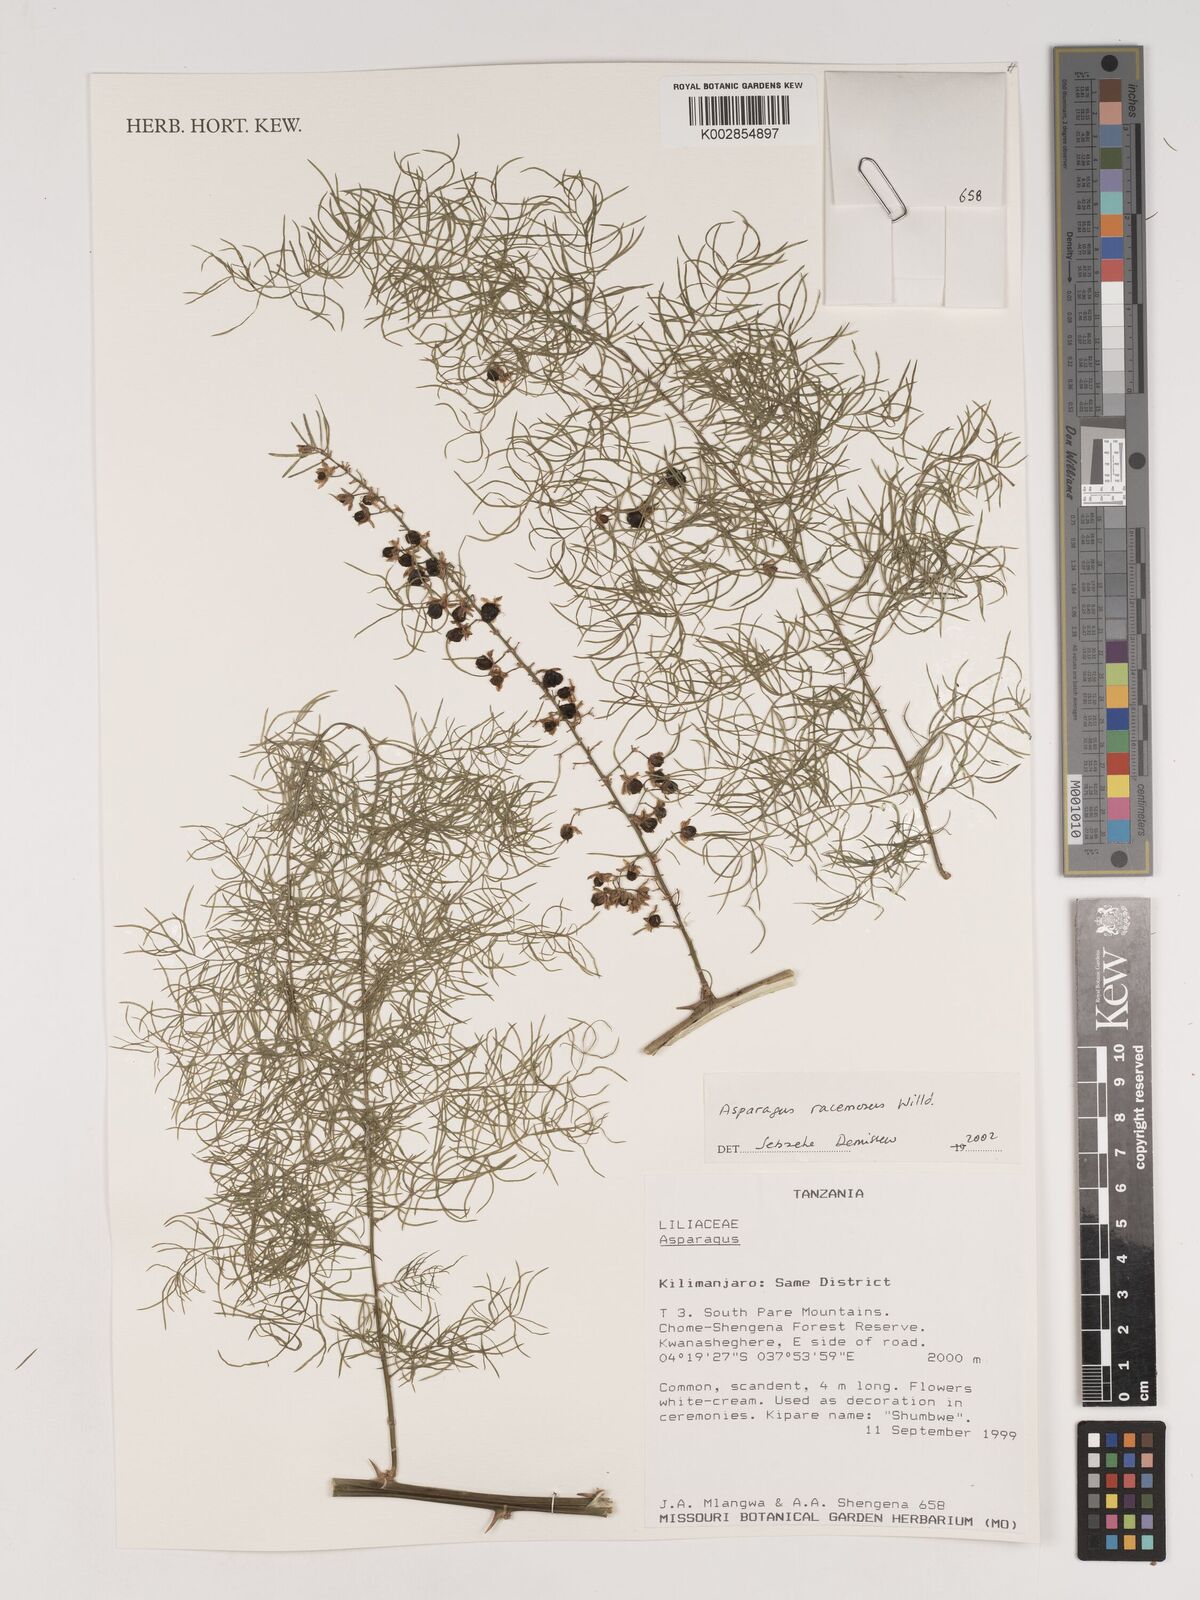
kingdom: Plantae
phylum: Tracheophyta
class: Liliopsida
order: Asparagales
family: Asparagaceae
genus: Asparagus
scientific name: Asparagus racemosus
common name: Asparagus-fern
